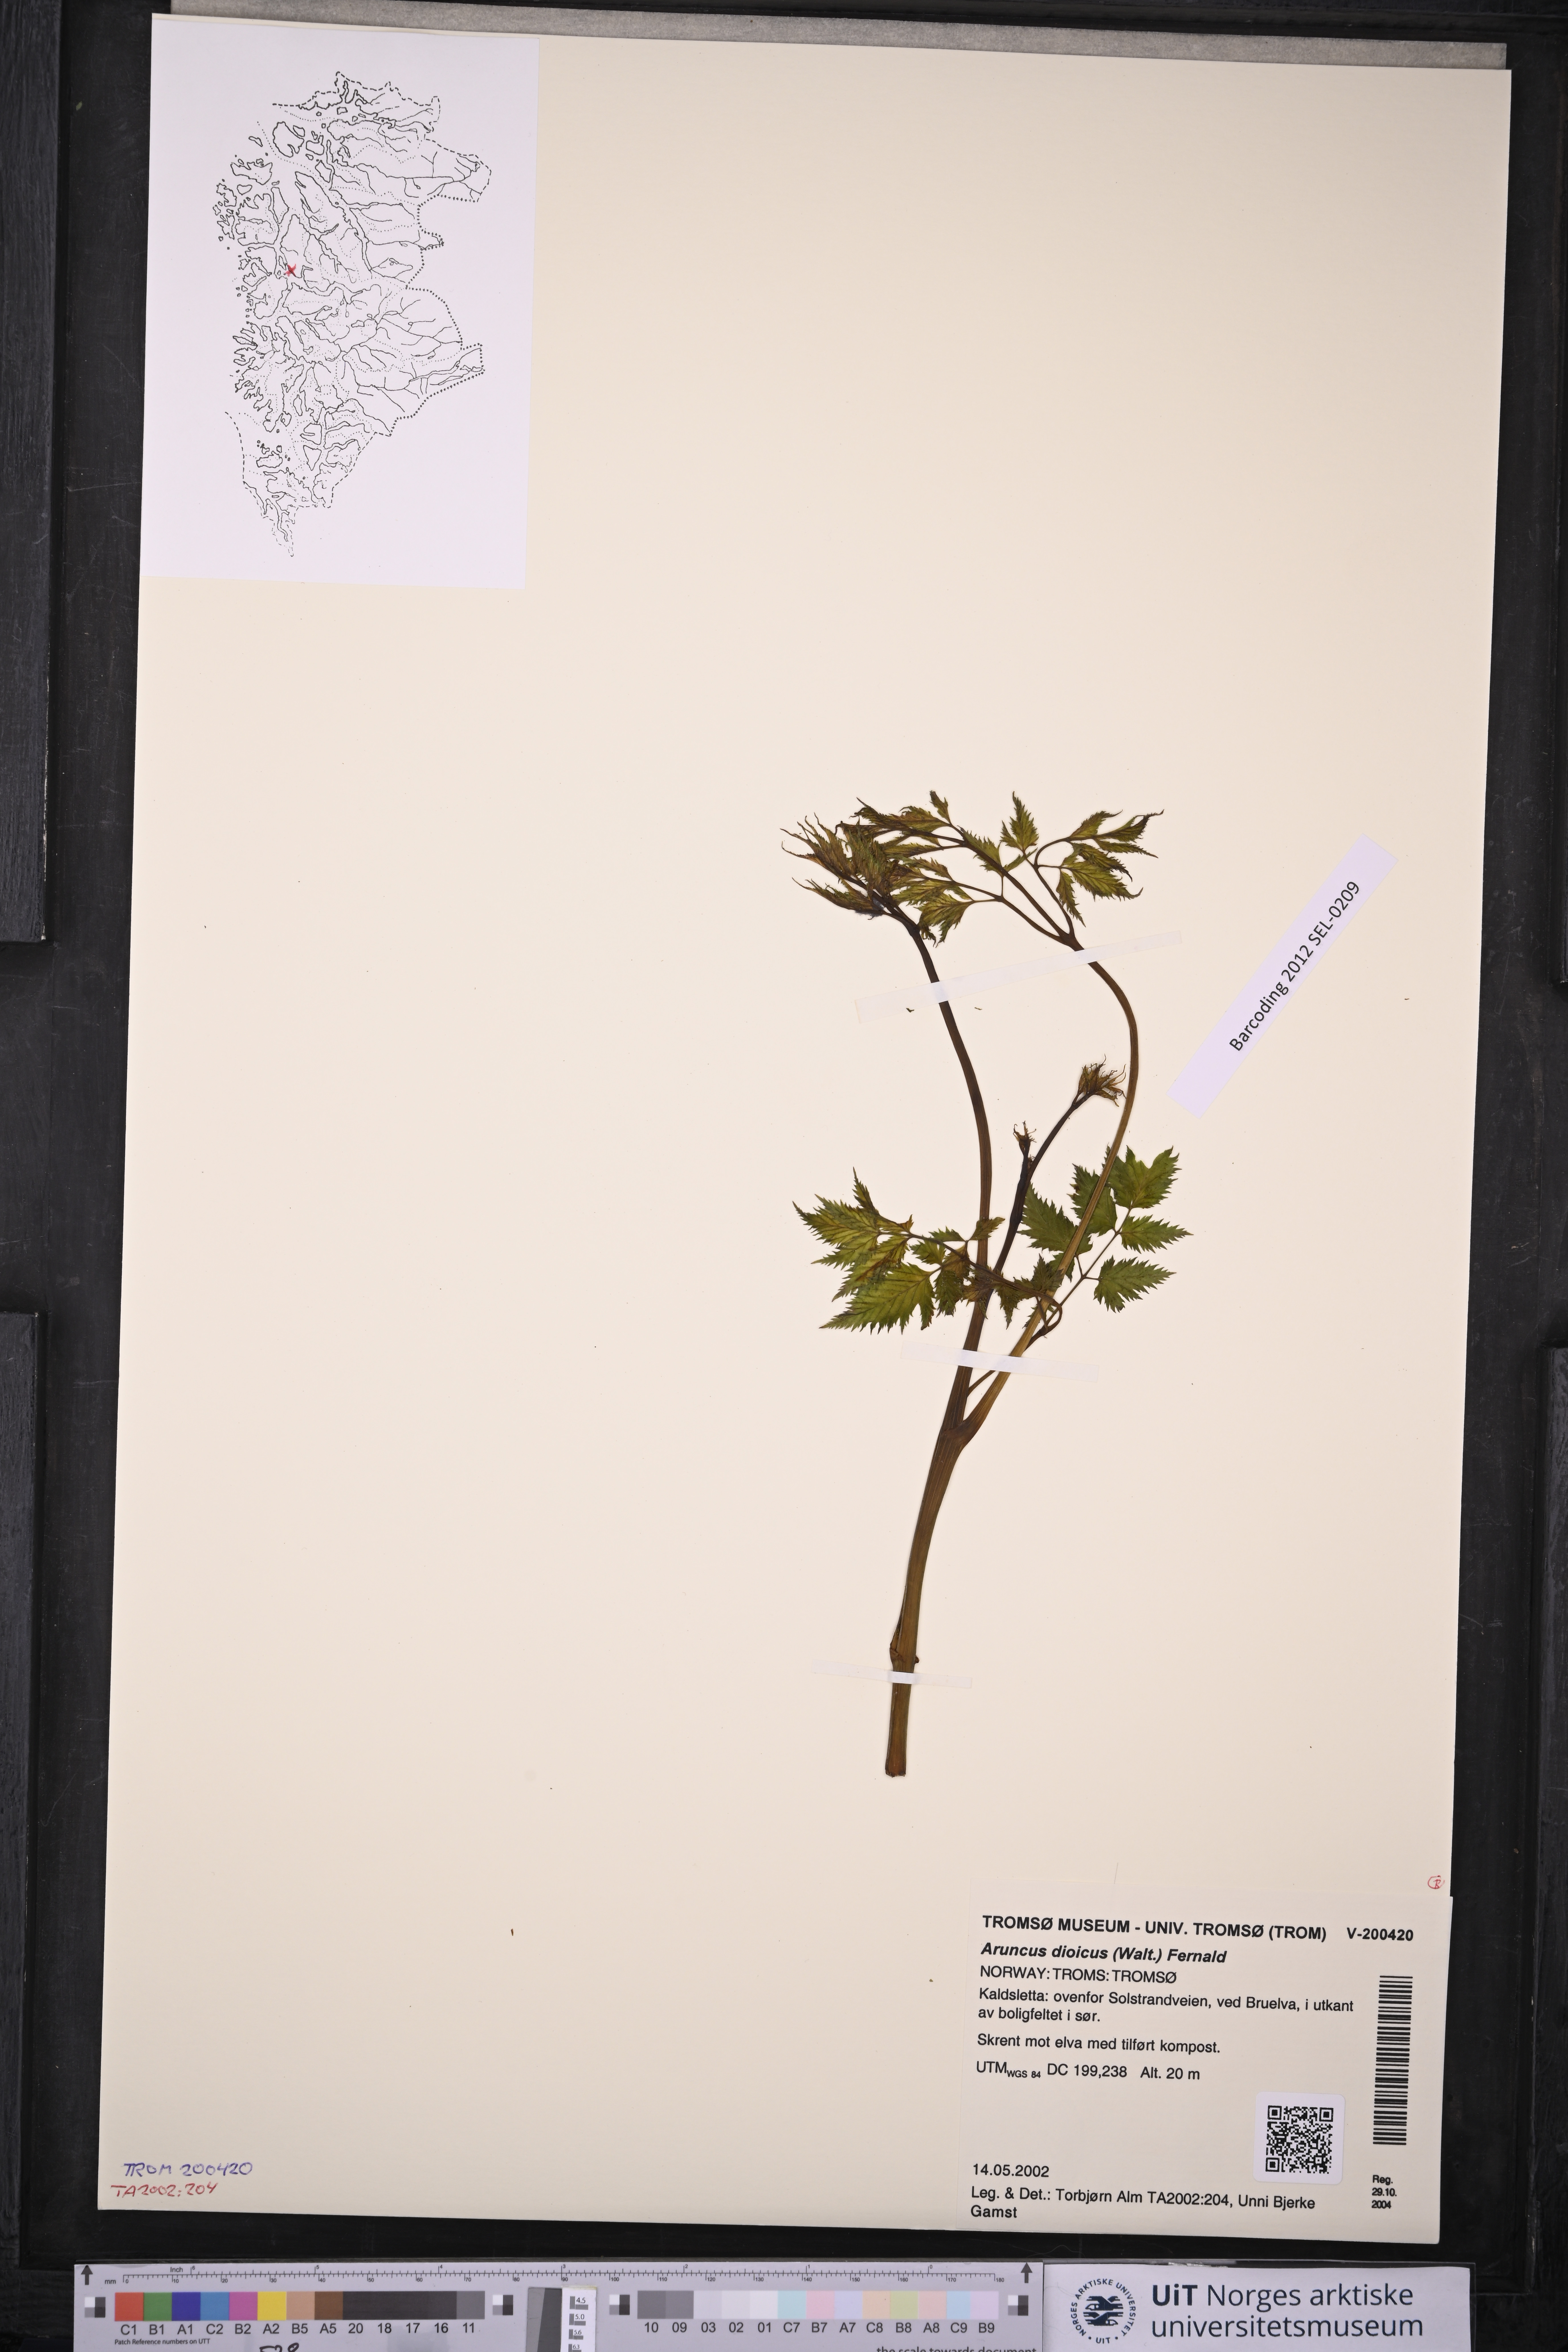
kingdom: Plantae
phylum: Tracheophyta
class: Magnoliopsida
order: Rosales
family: Rosaceae
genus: Aruncus
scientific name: Aruncus dioicus
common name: Buck's-beard
